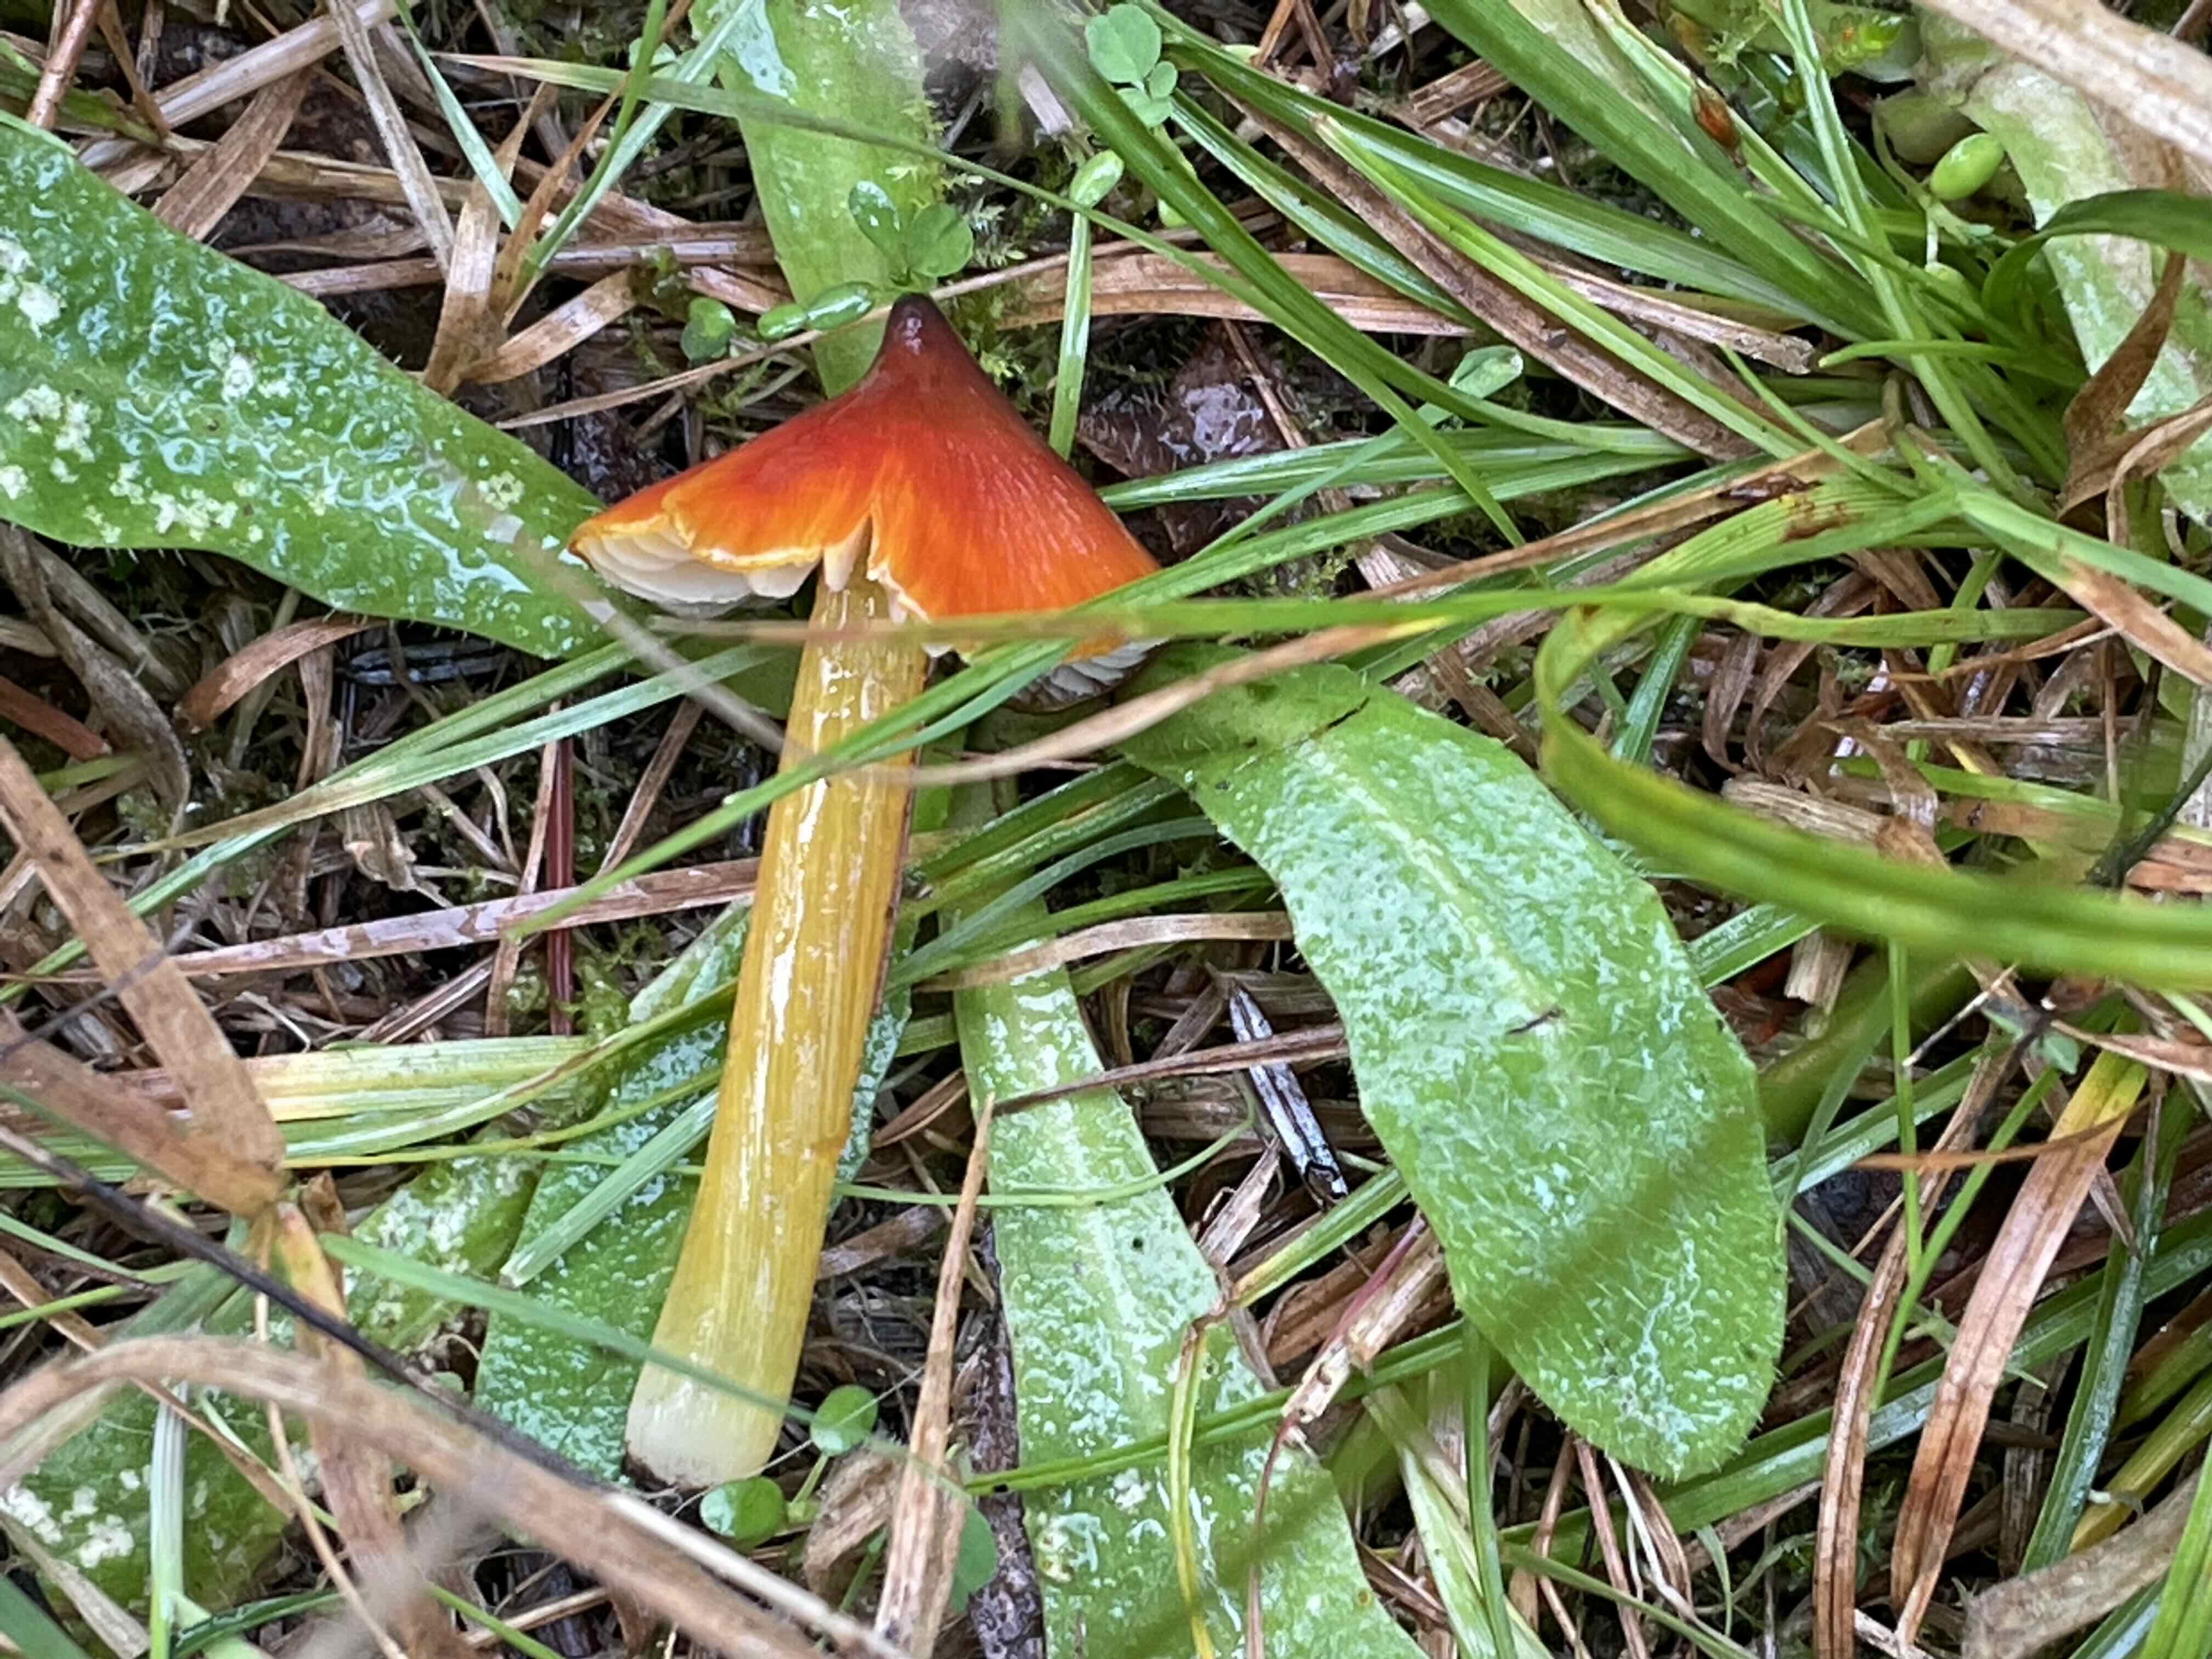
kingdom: Fungi
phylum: Basidiomycota
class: Agaricomycetes
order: Agaricales
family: Hygrophoraceae
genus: Hygrocybe
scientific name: Hygrocybe conica
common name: kegle-vokshat
